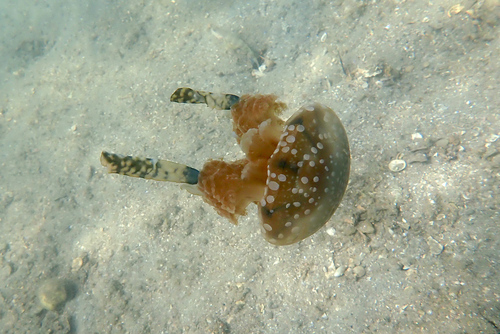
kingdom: Animalia
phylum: Cnidaria
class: Scyphozoa
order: Rhizostomeae
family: Mastigiidae
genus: Mastigias
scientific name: Mastigias papua
